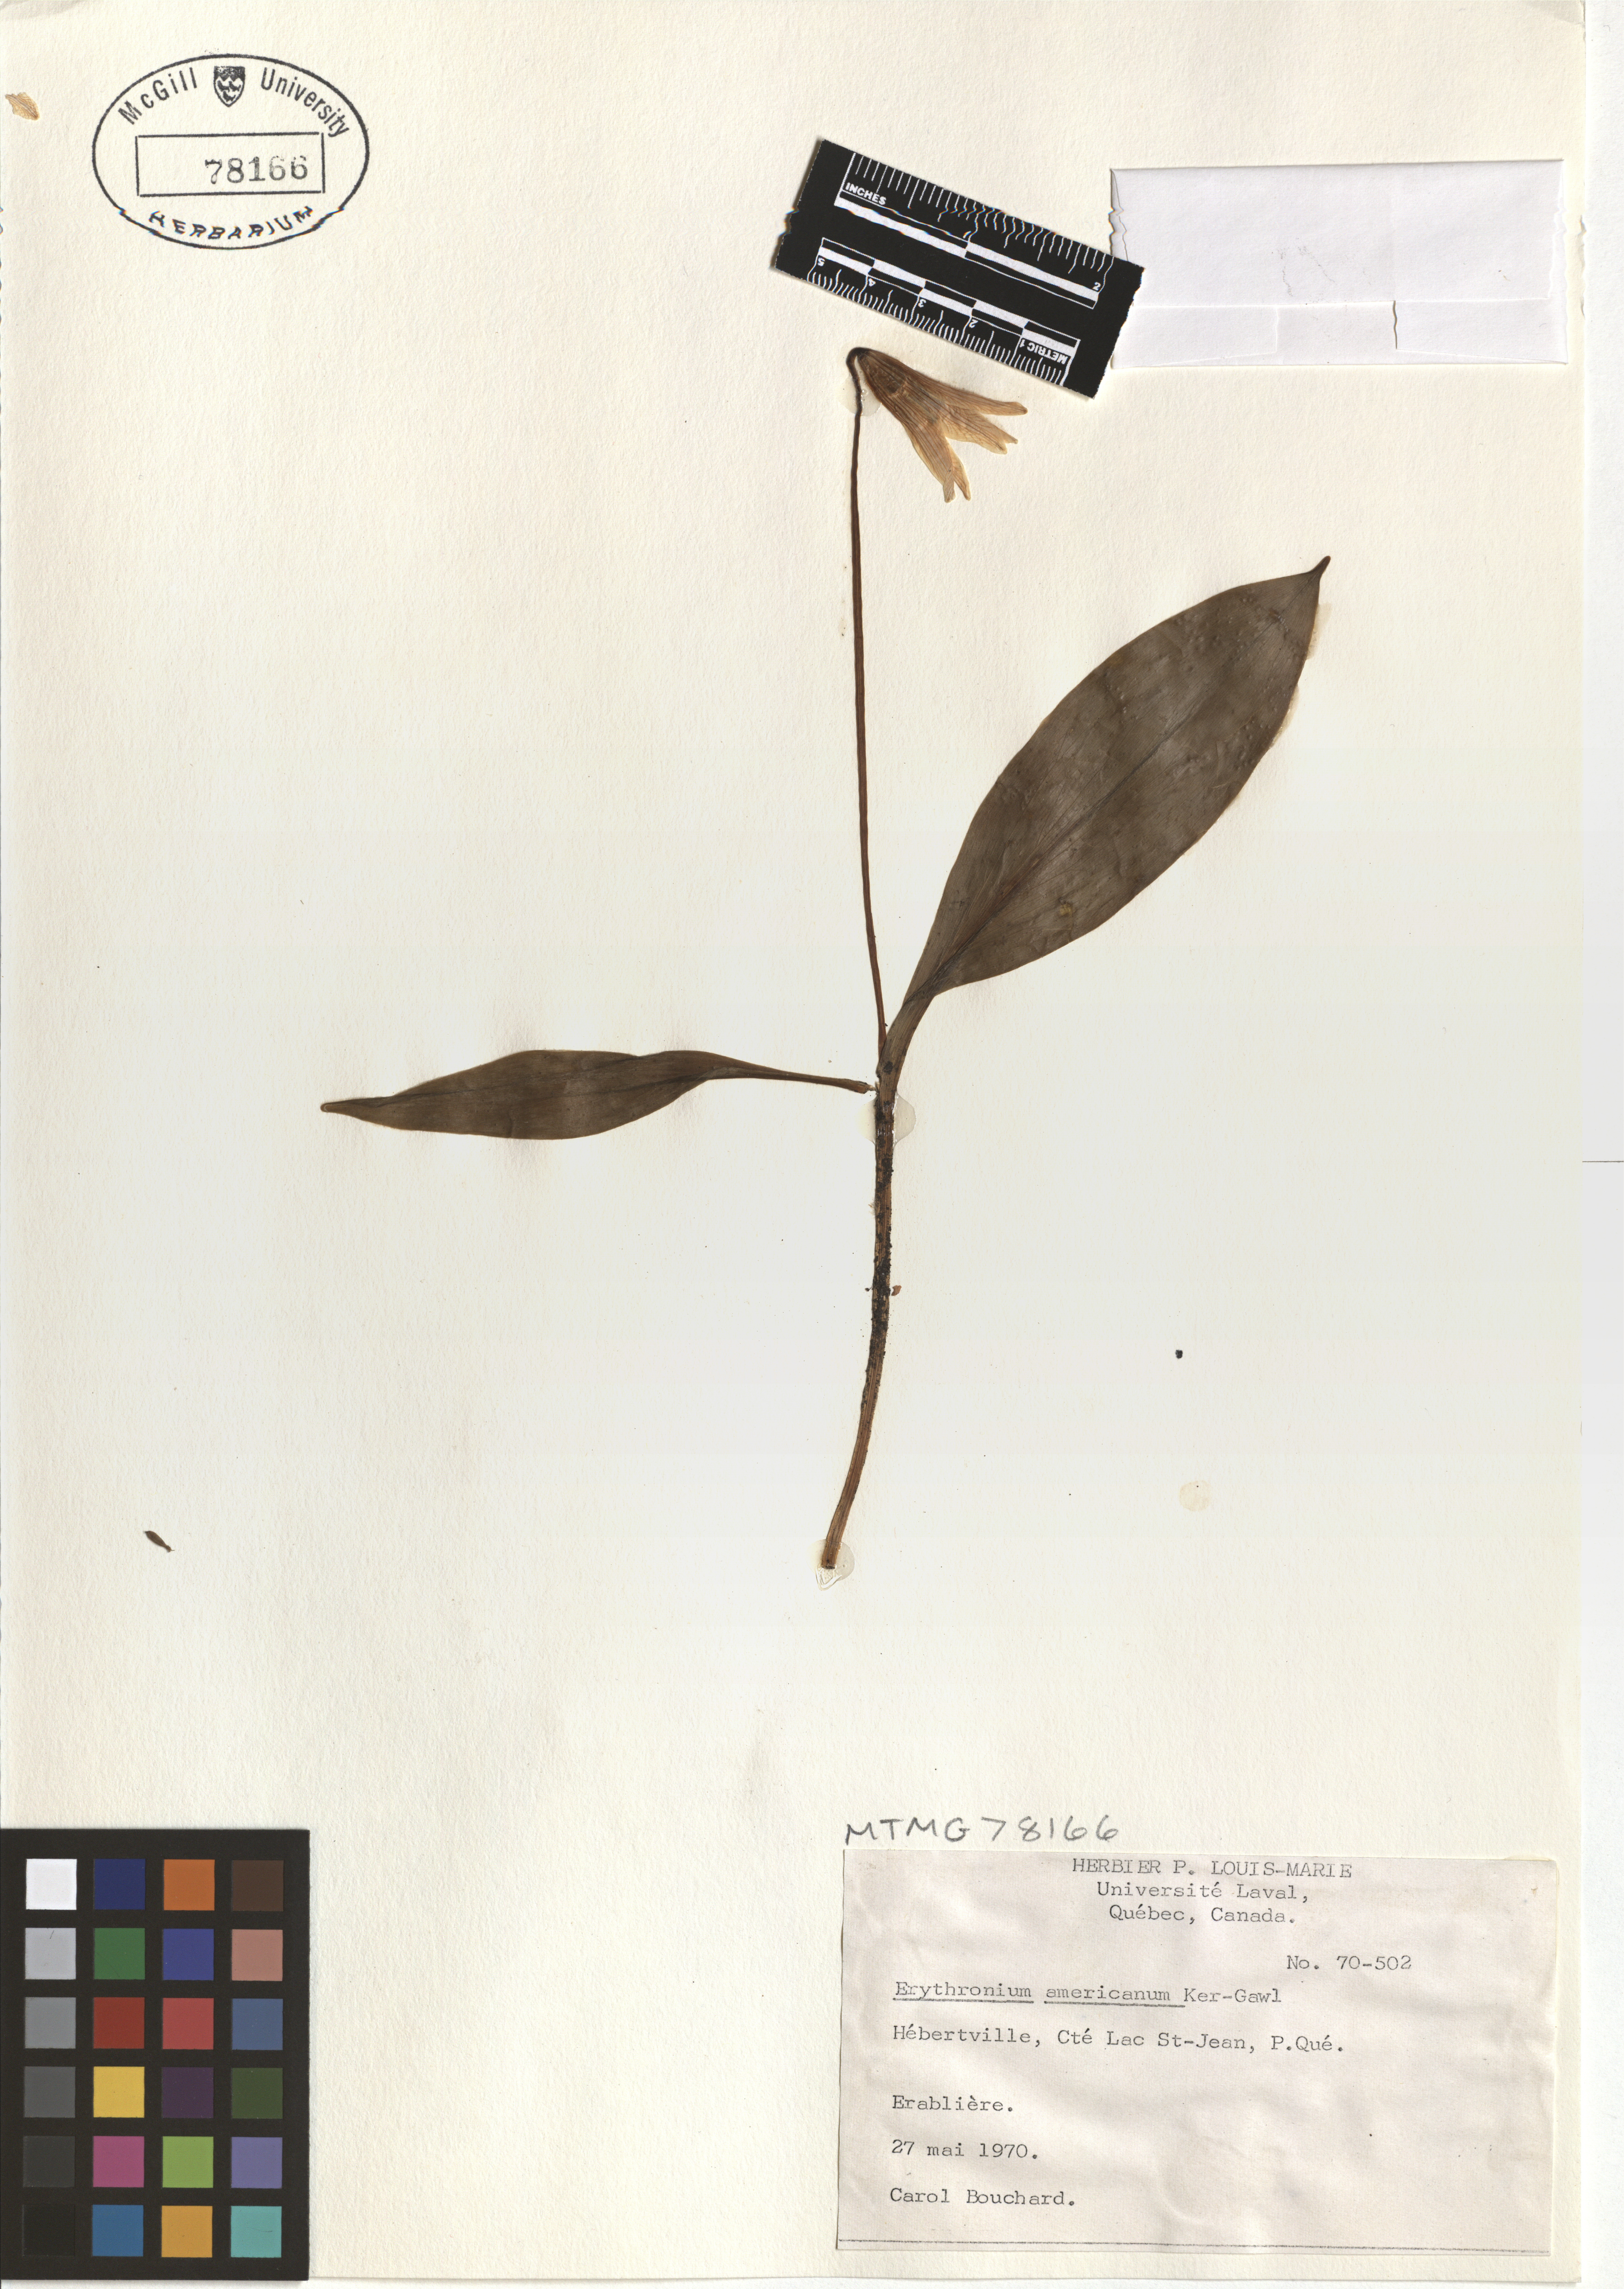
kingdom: Plantae
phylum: Tracheophyta
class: Liliopsida
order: Liliales
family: Liliaceae
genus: Erythronium
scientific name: Erythronium americanum
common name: Yellow adder's-tongue
